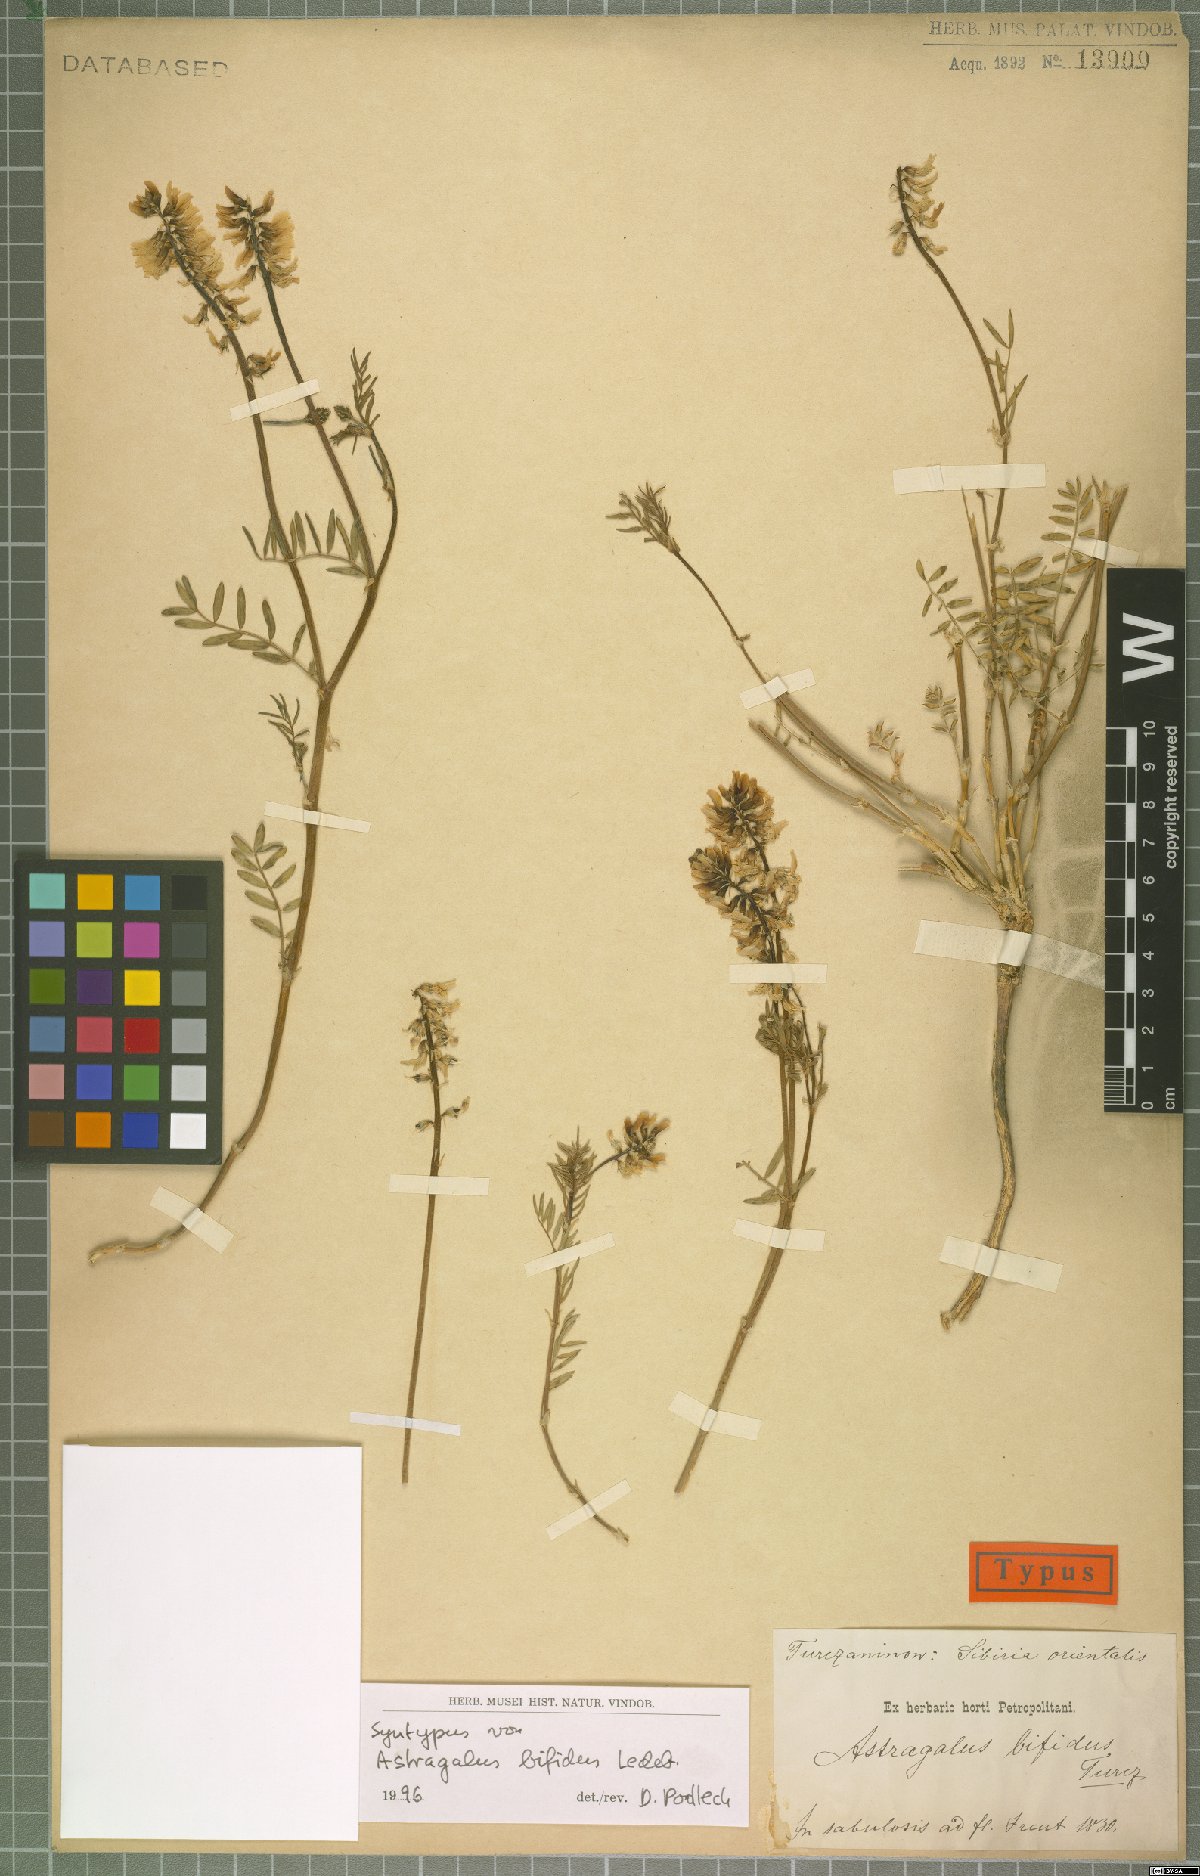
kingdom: Plantae
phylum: Tracheophyta
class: Magnoliopsida
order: Fabales
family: Fabaceae
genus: Astragalus
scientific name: Astragalus versicolor
